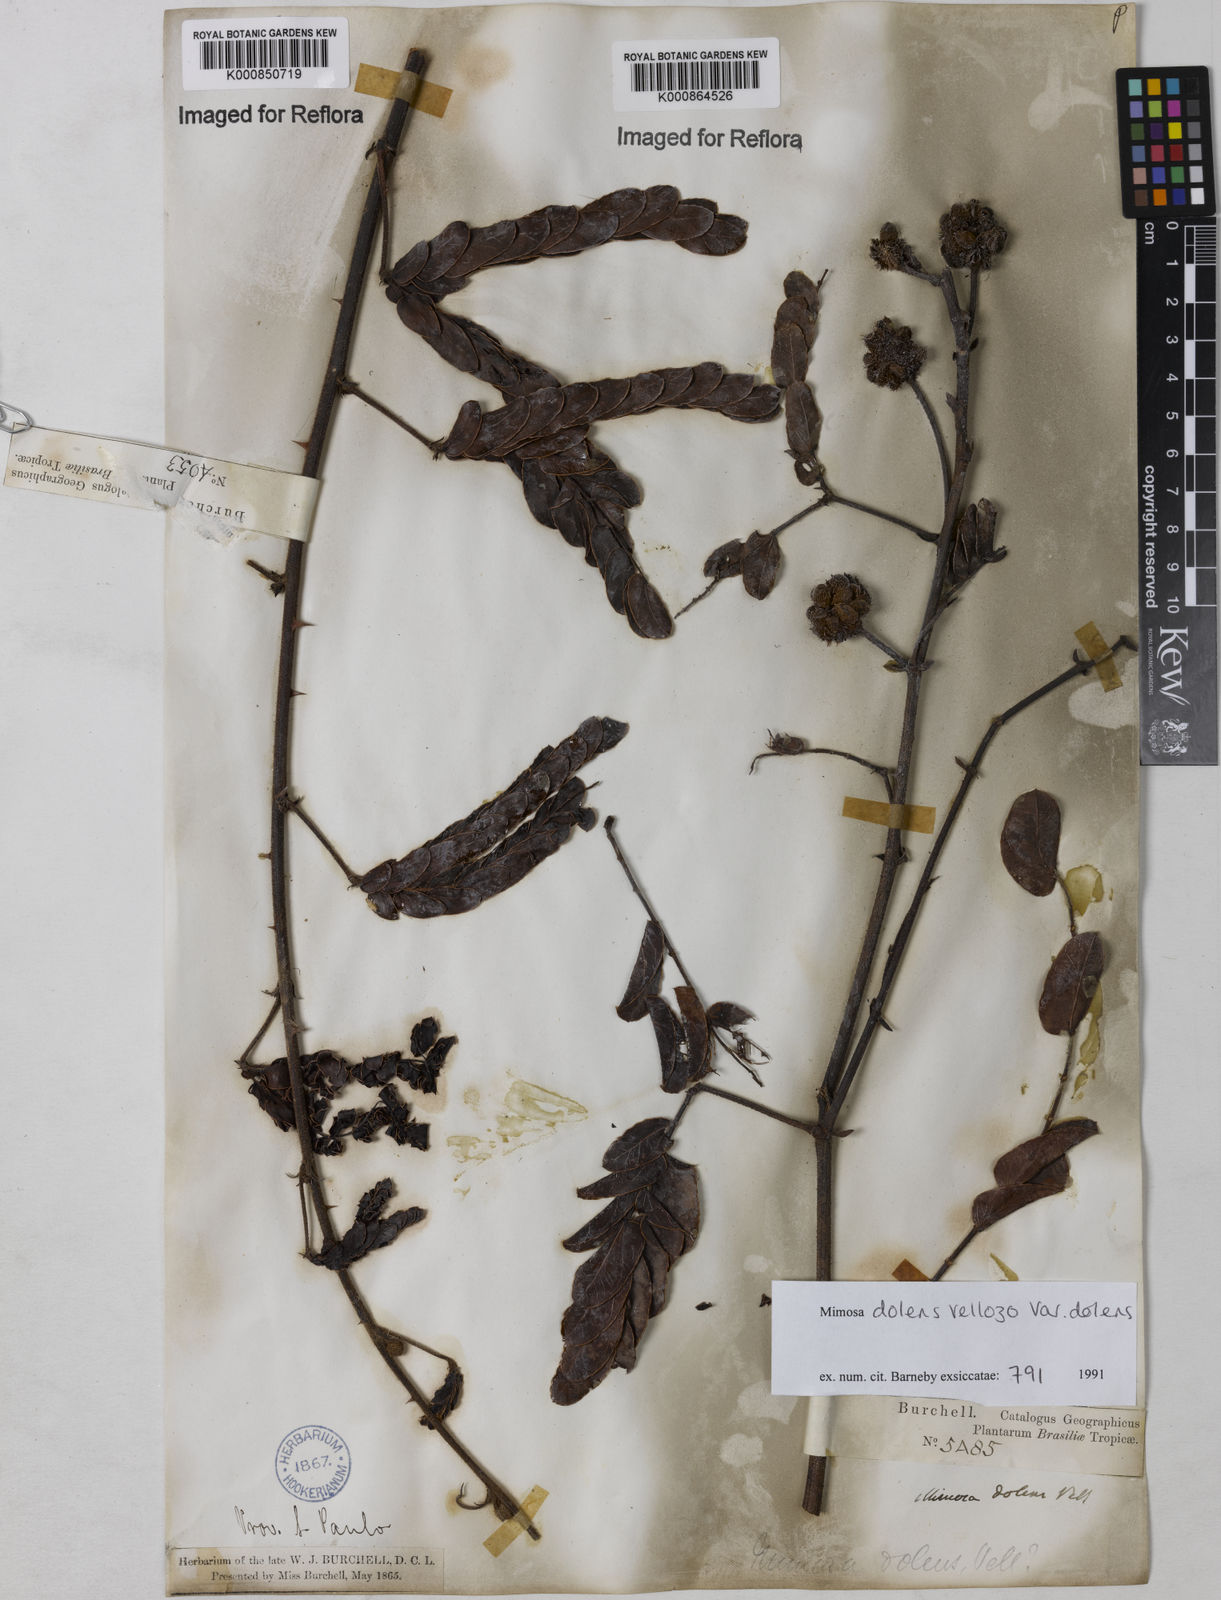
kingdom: Plantae
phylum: Tracheophyta
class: Magnoliopsida
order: Fabales
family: Fabaceae
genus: Mimosa
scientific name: Mimosa dolens
